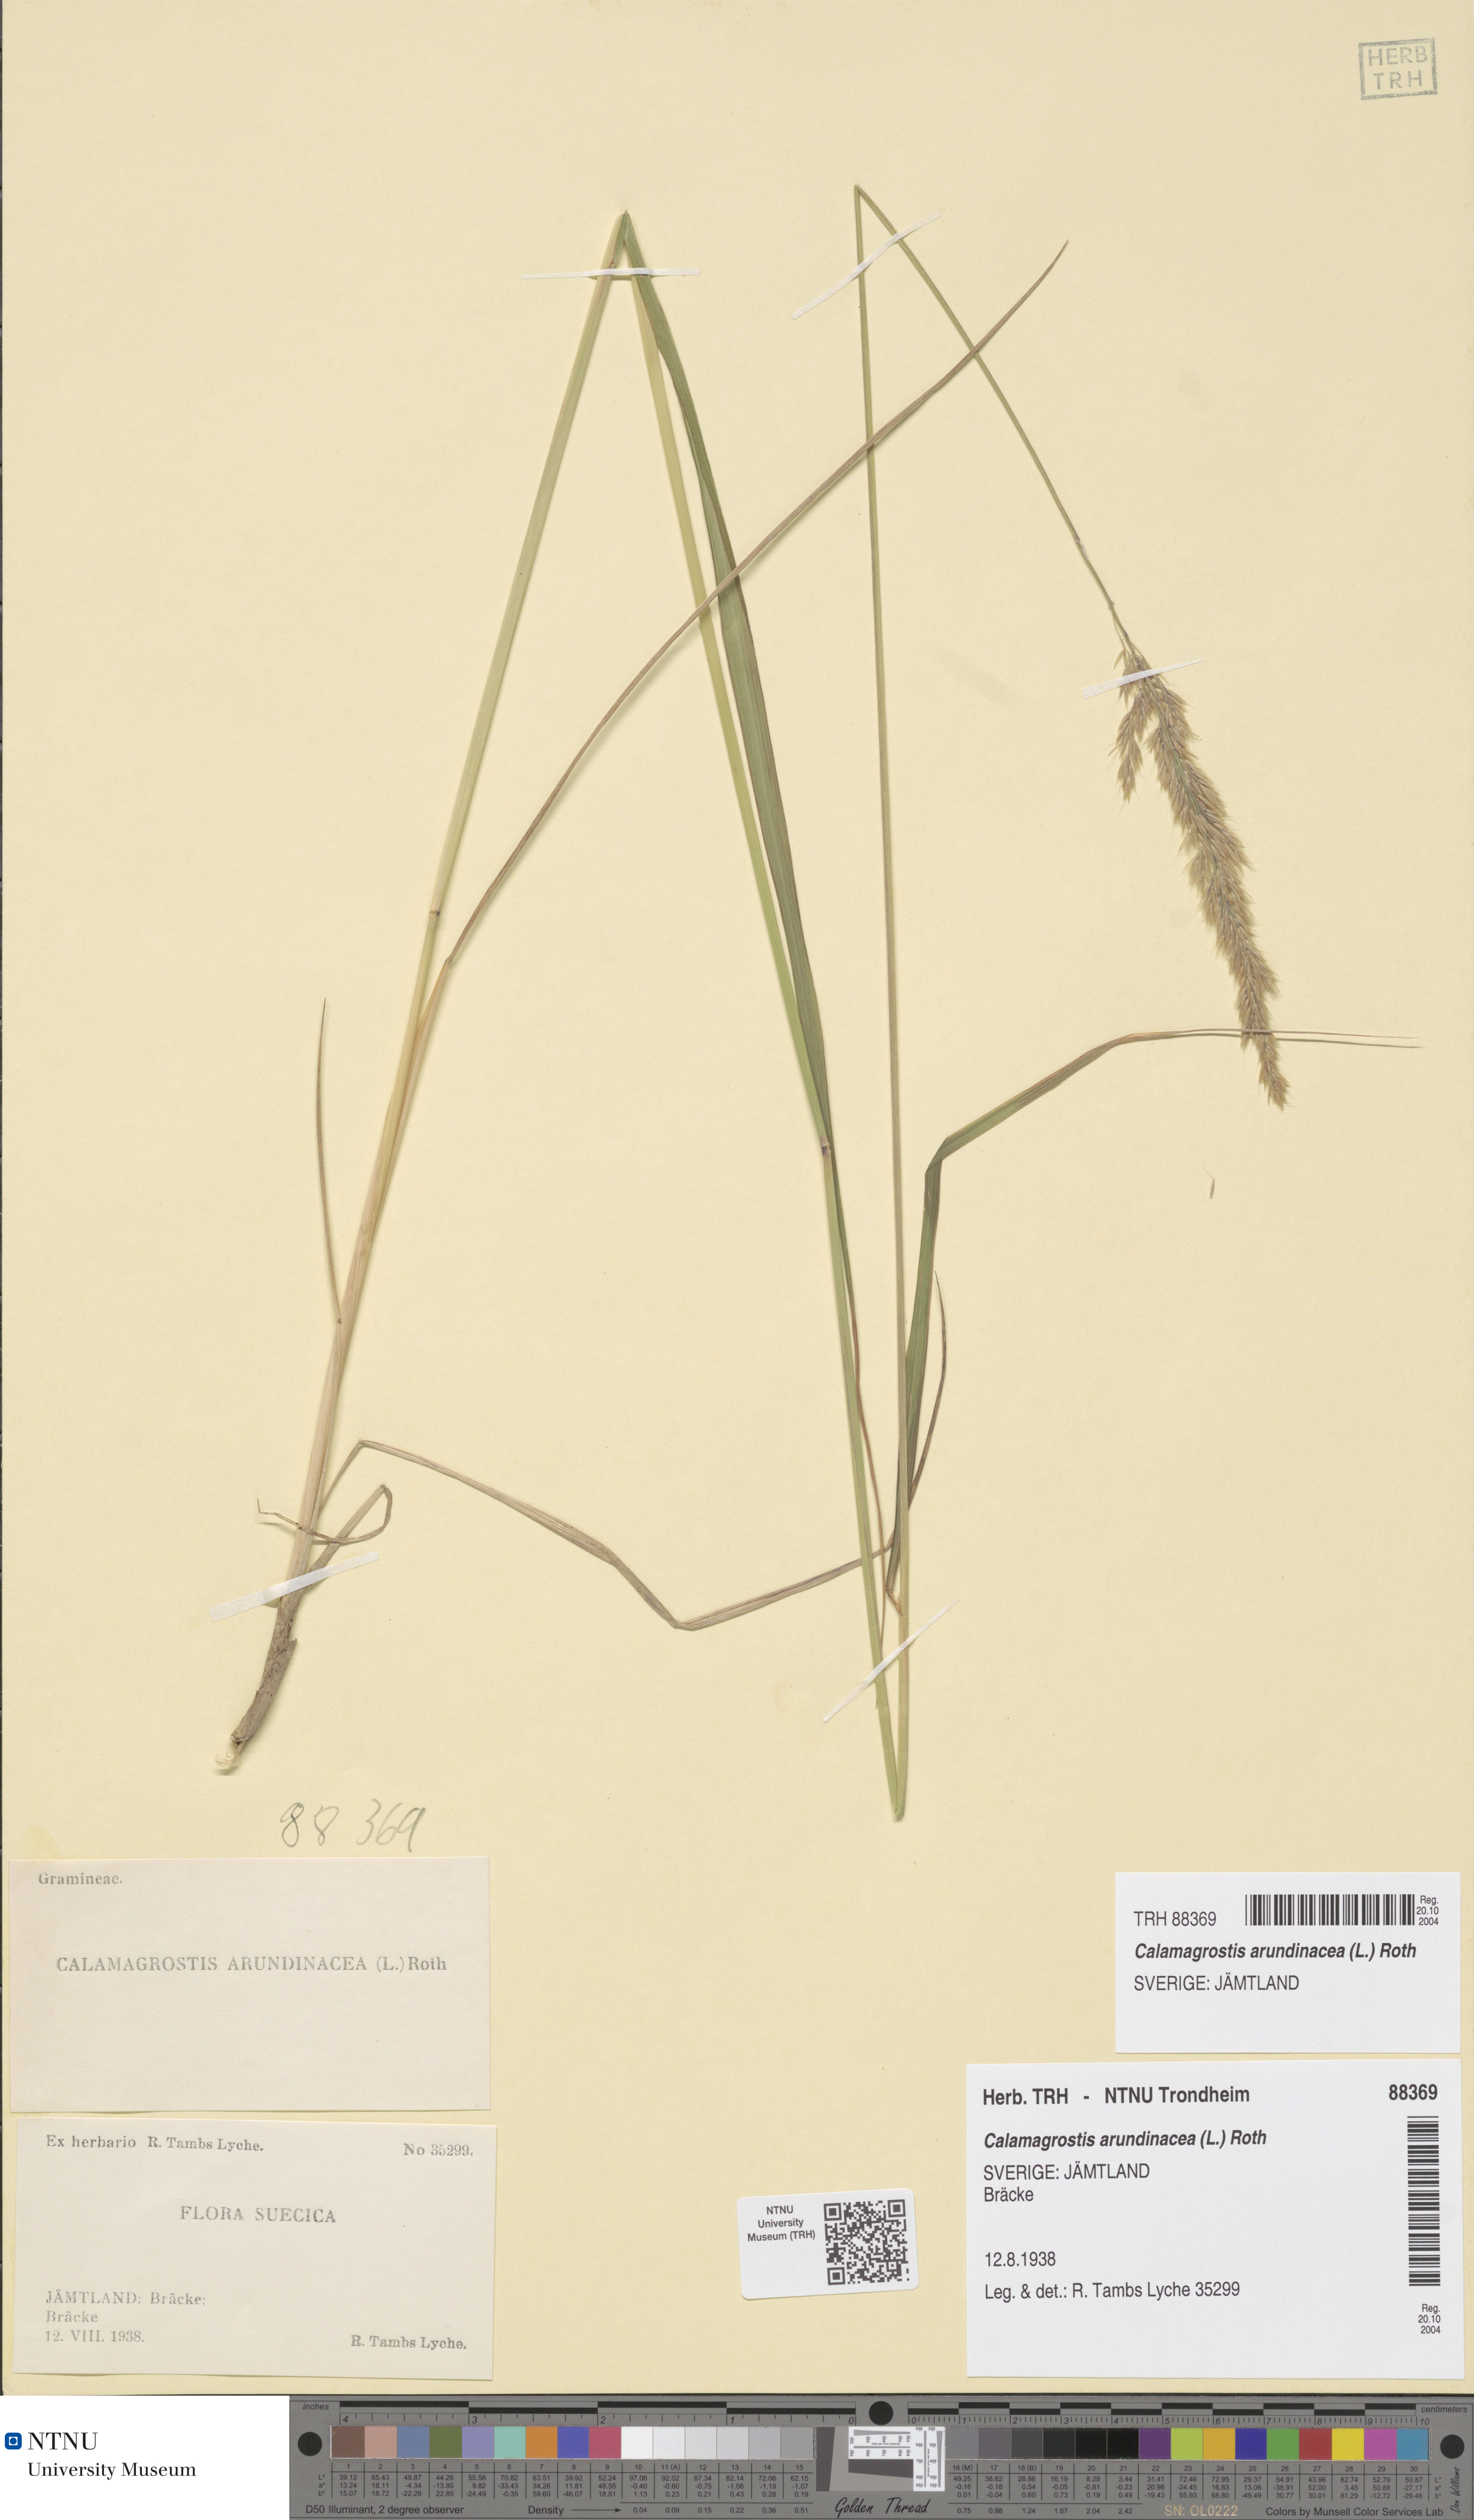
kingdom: Plantae
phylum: Tracheophyta
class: Liliopsida
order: Poales
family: Poaceae
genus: Calamagrostis
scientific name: Calamagrostis arundinacea
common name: Metskastik
